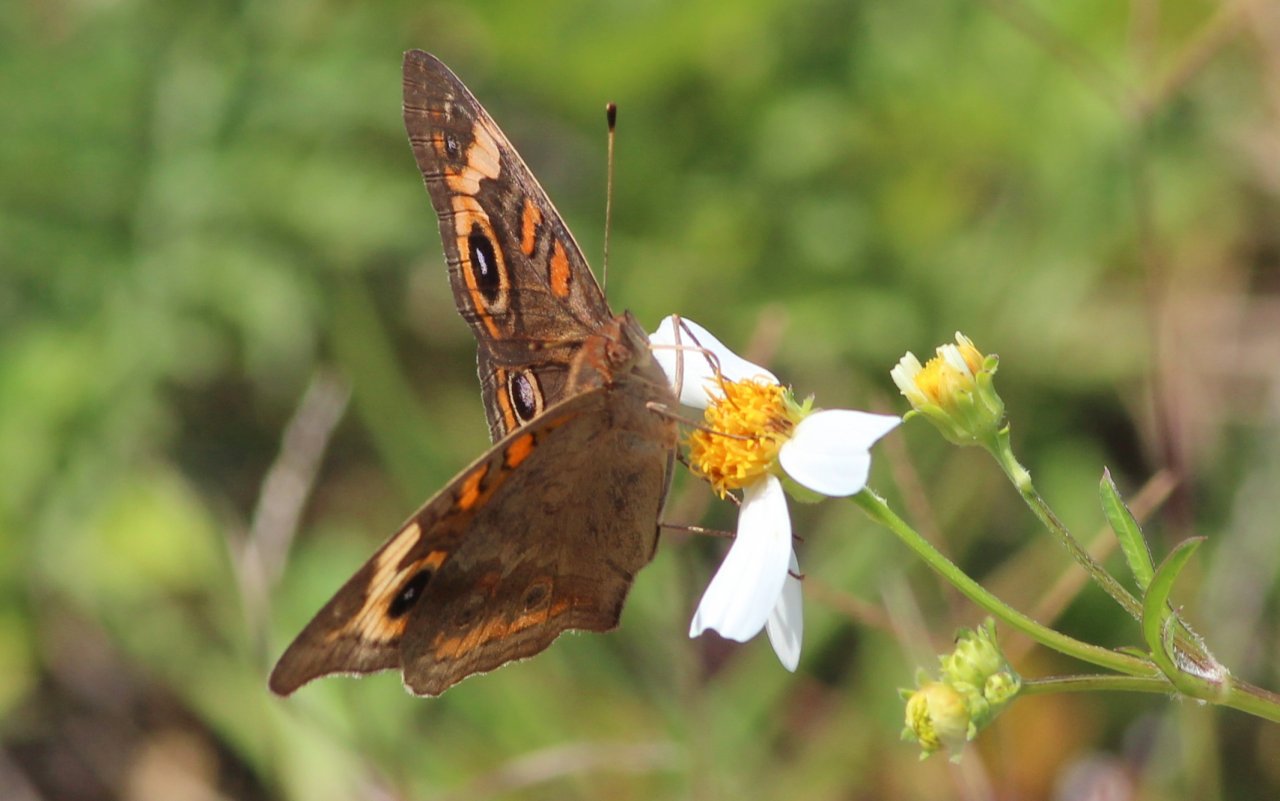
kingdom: Animalia
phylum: Arthropoda
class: Insecta
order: Lepidoptera
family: Nymphalidae
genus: Junonia
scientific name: Junonia coenia
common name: Common Buckeye
